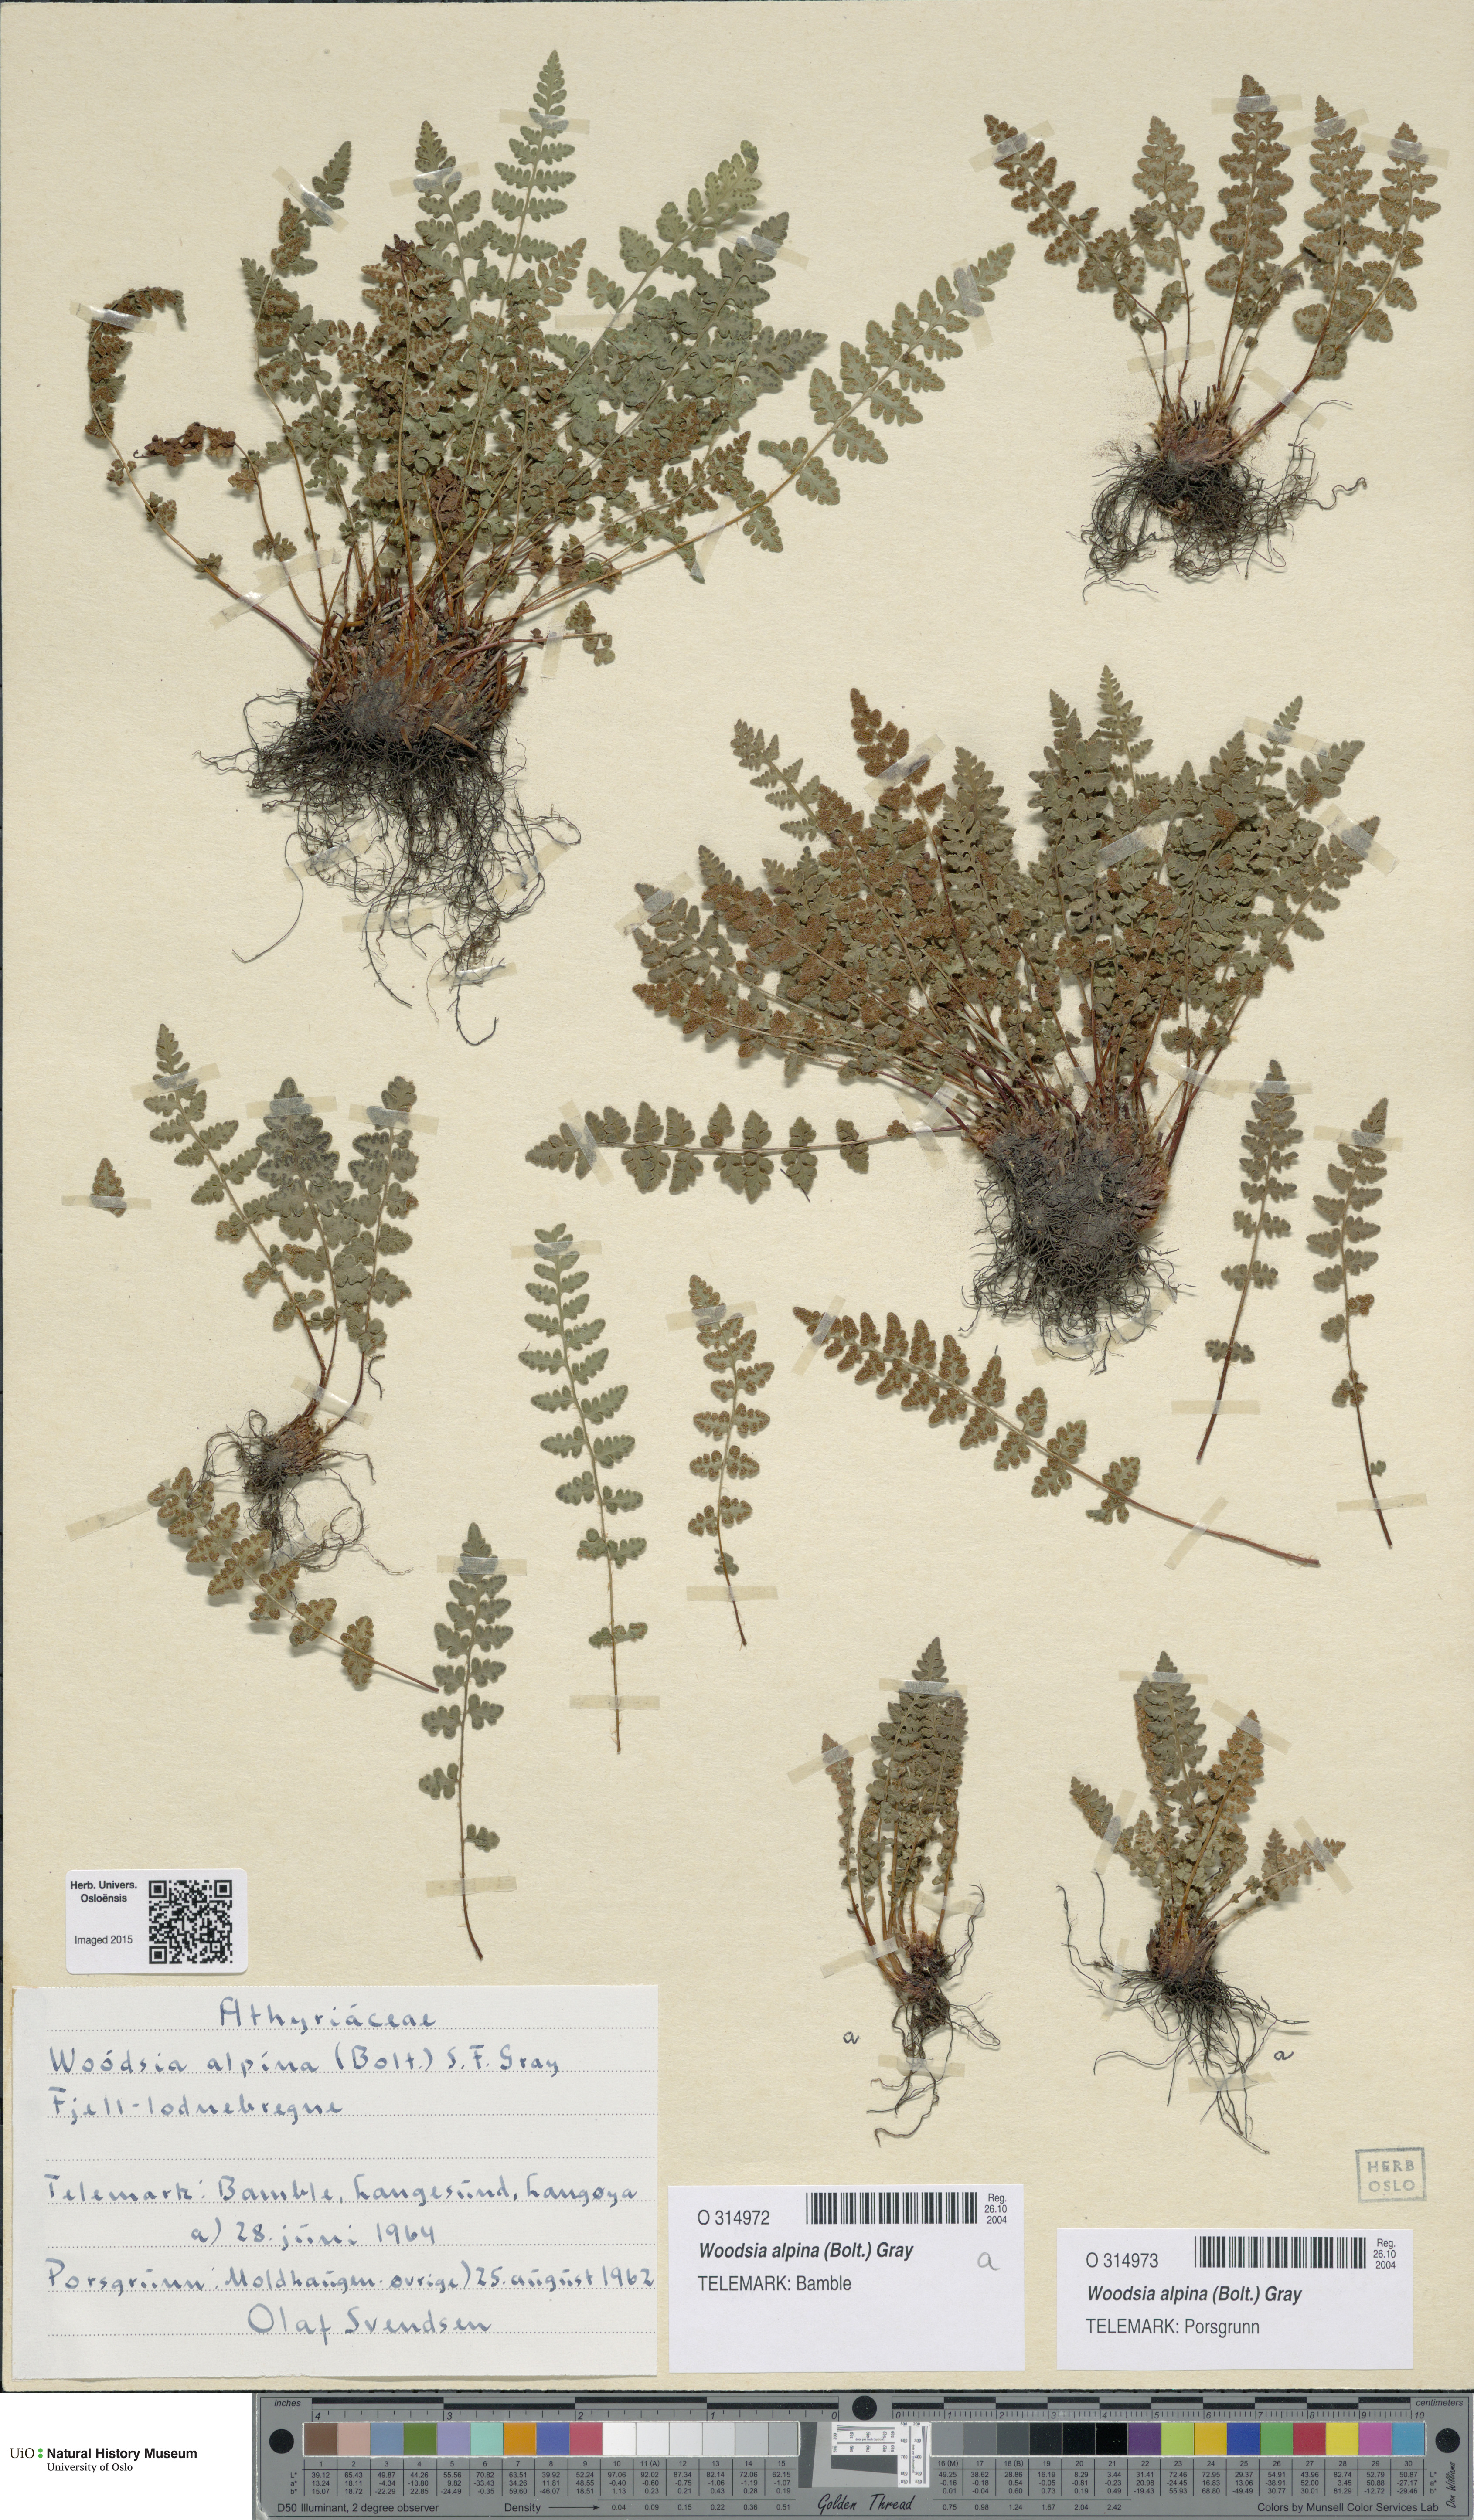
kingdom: Plantae
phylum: Tracheophyta
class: Polypodiopsida
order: Polypodiales
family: Woodsiaceae
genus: Woodsia
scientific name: Woodsia alpina
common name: Alpine woodsia
